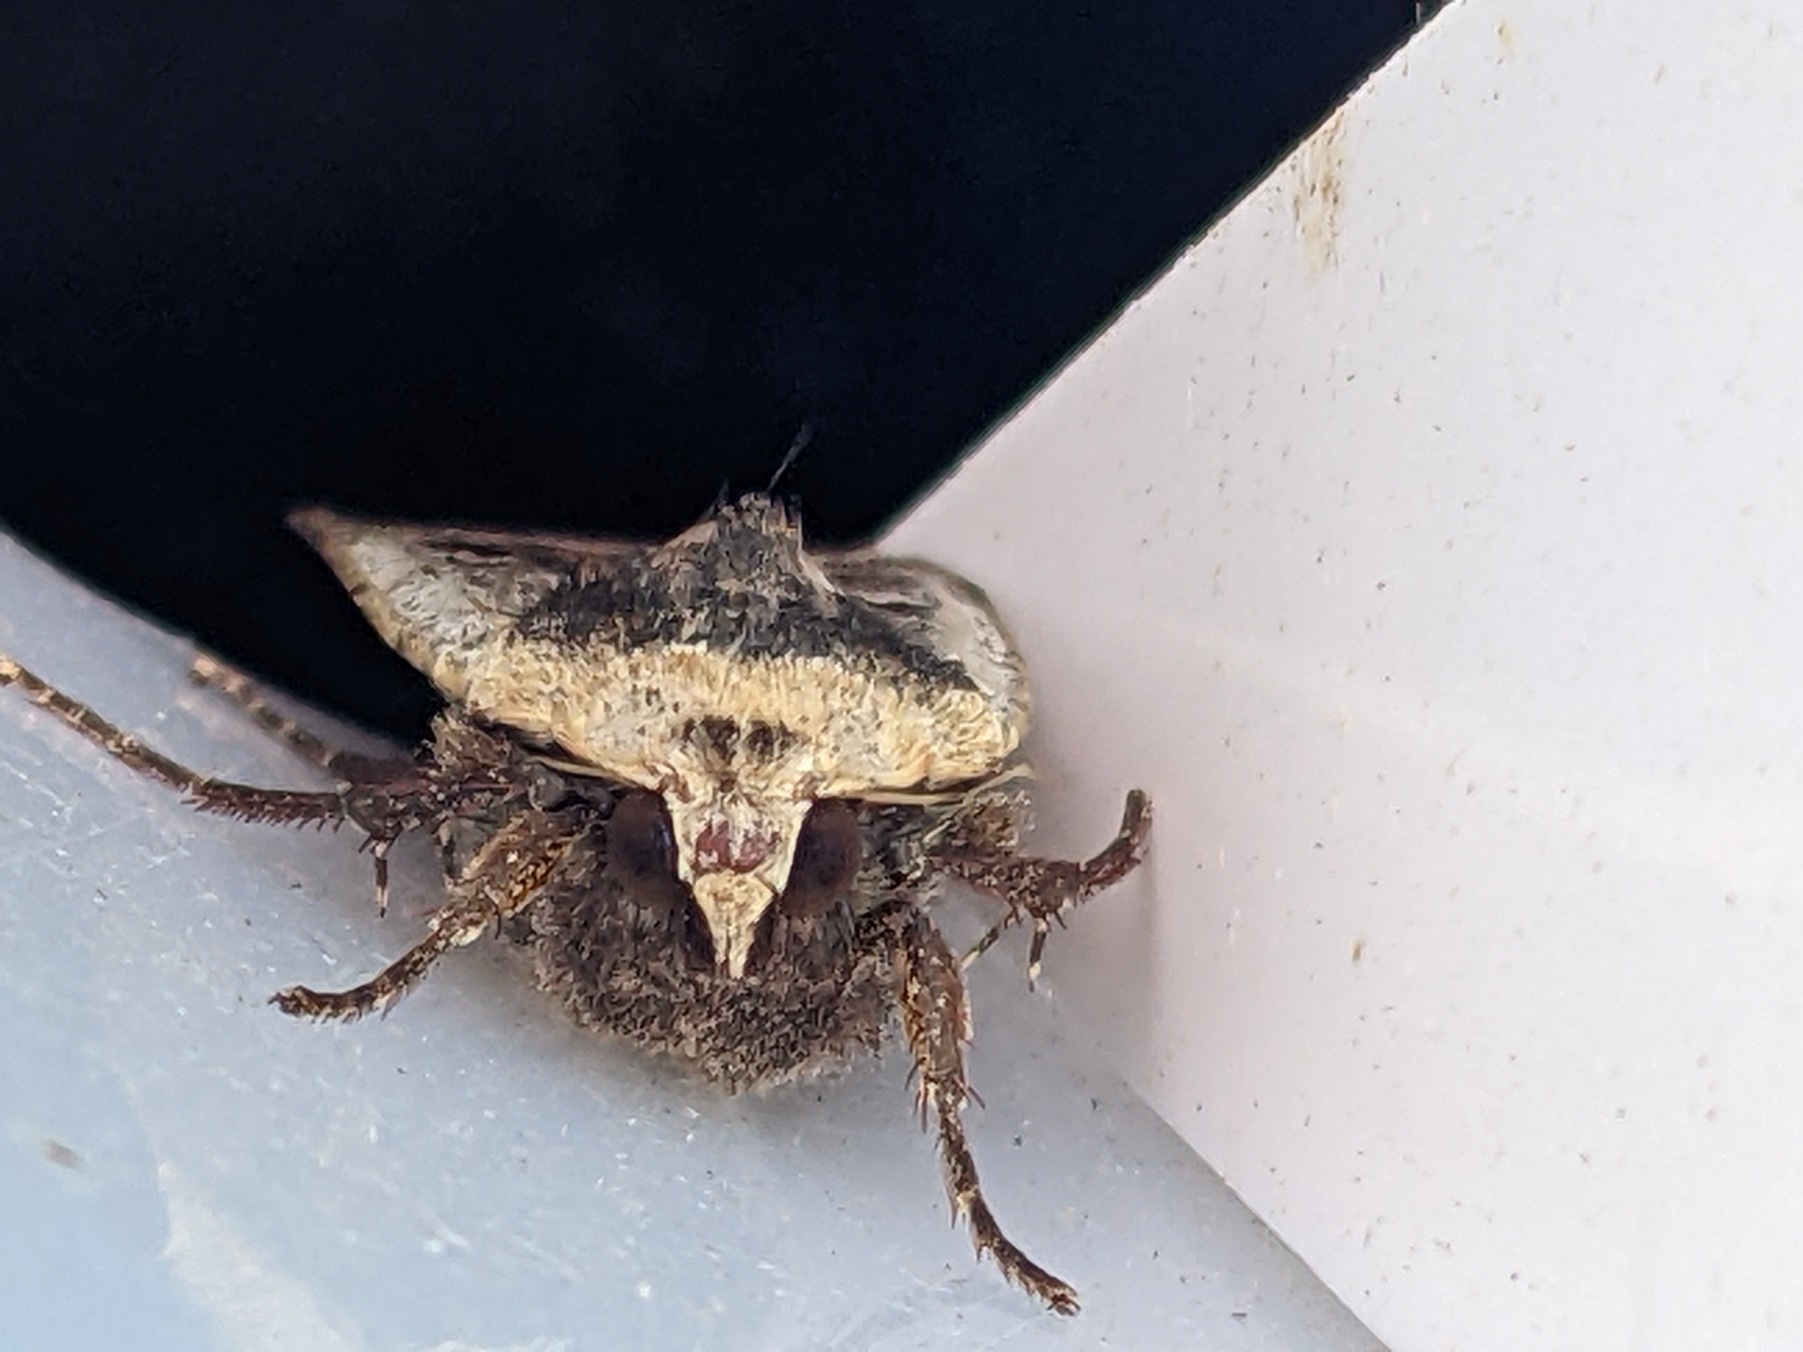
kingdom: Animalia
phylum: Arthropoda
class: Insecta
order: Lepidoptera
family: Noctuidae
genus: Noctua
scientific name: Noctua pronuba
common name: Stor smutugle
